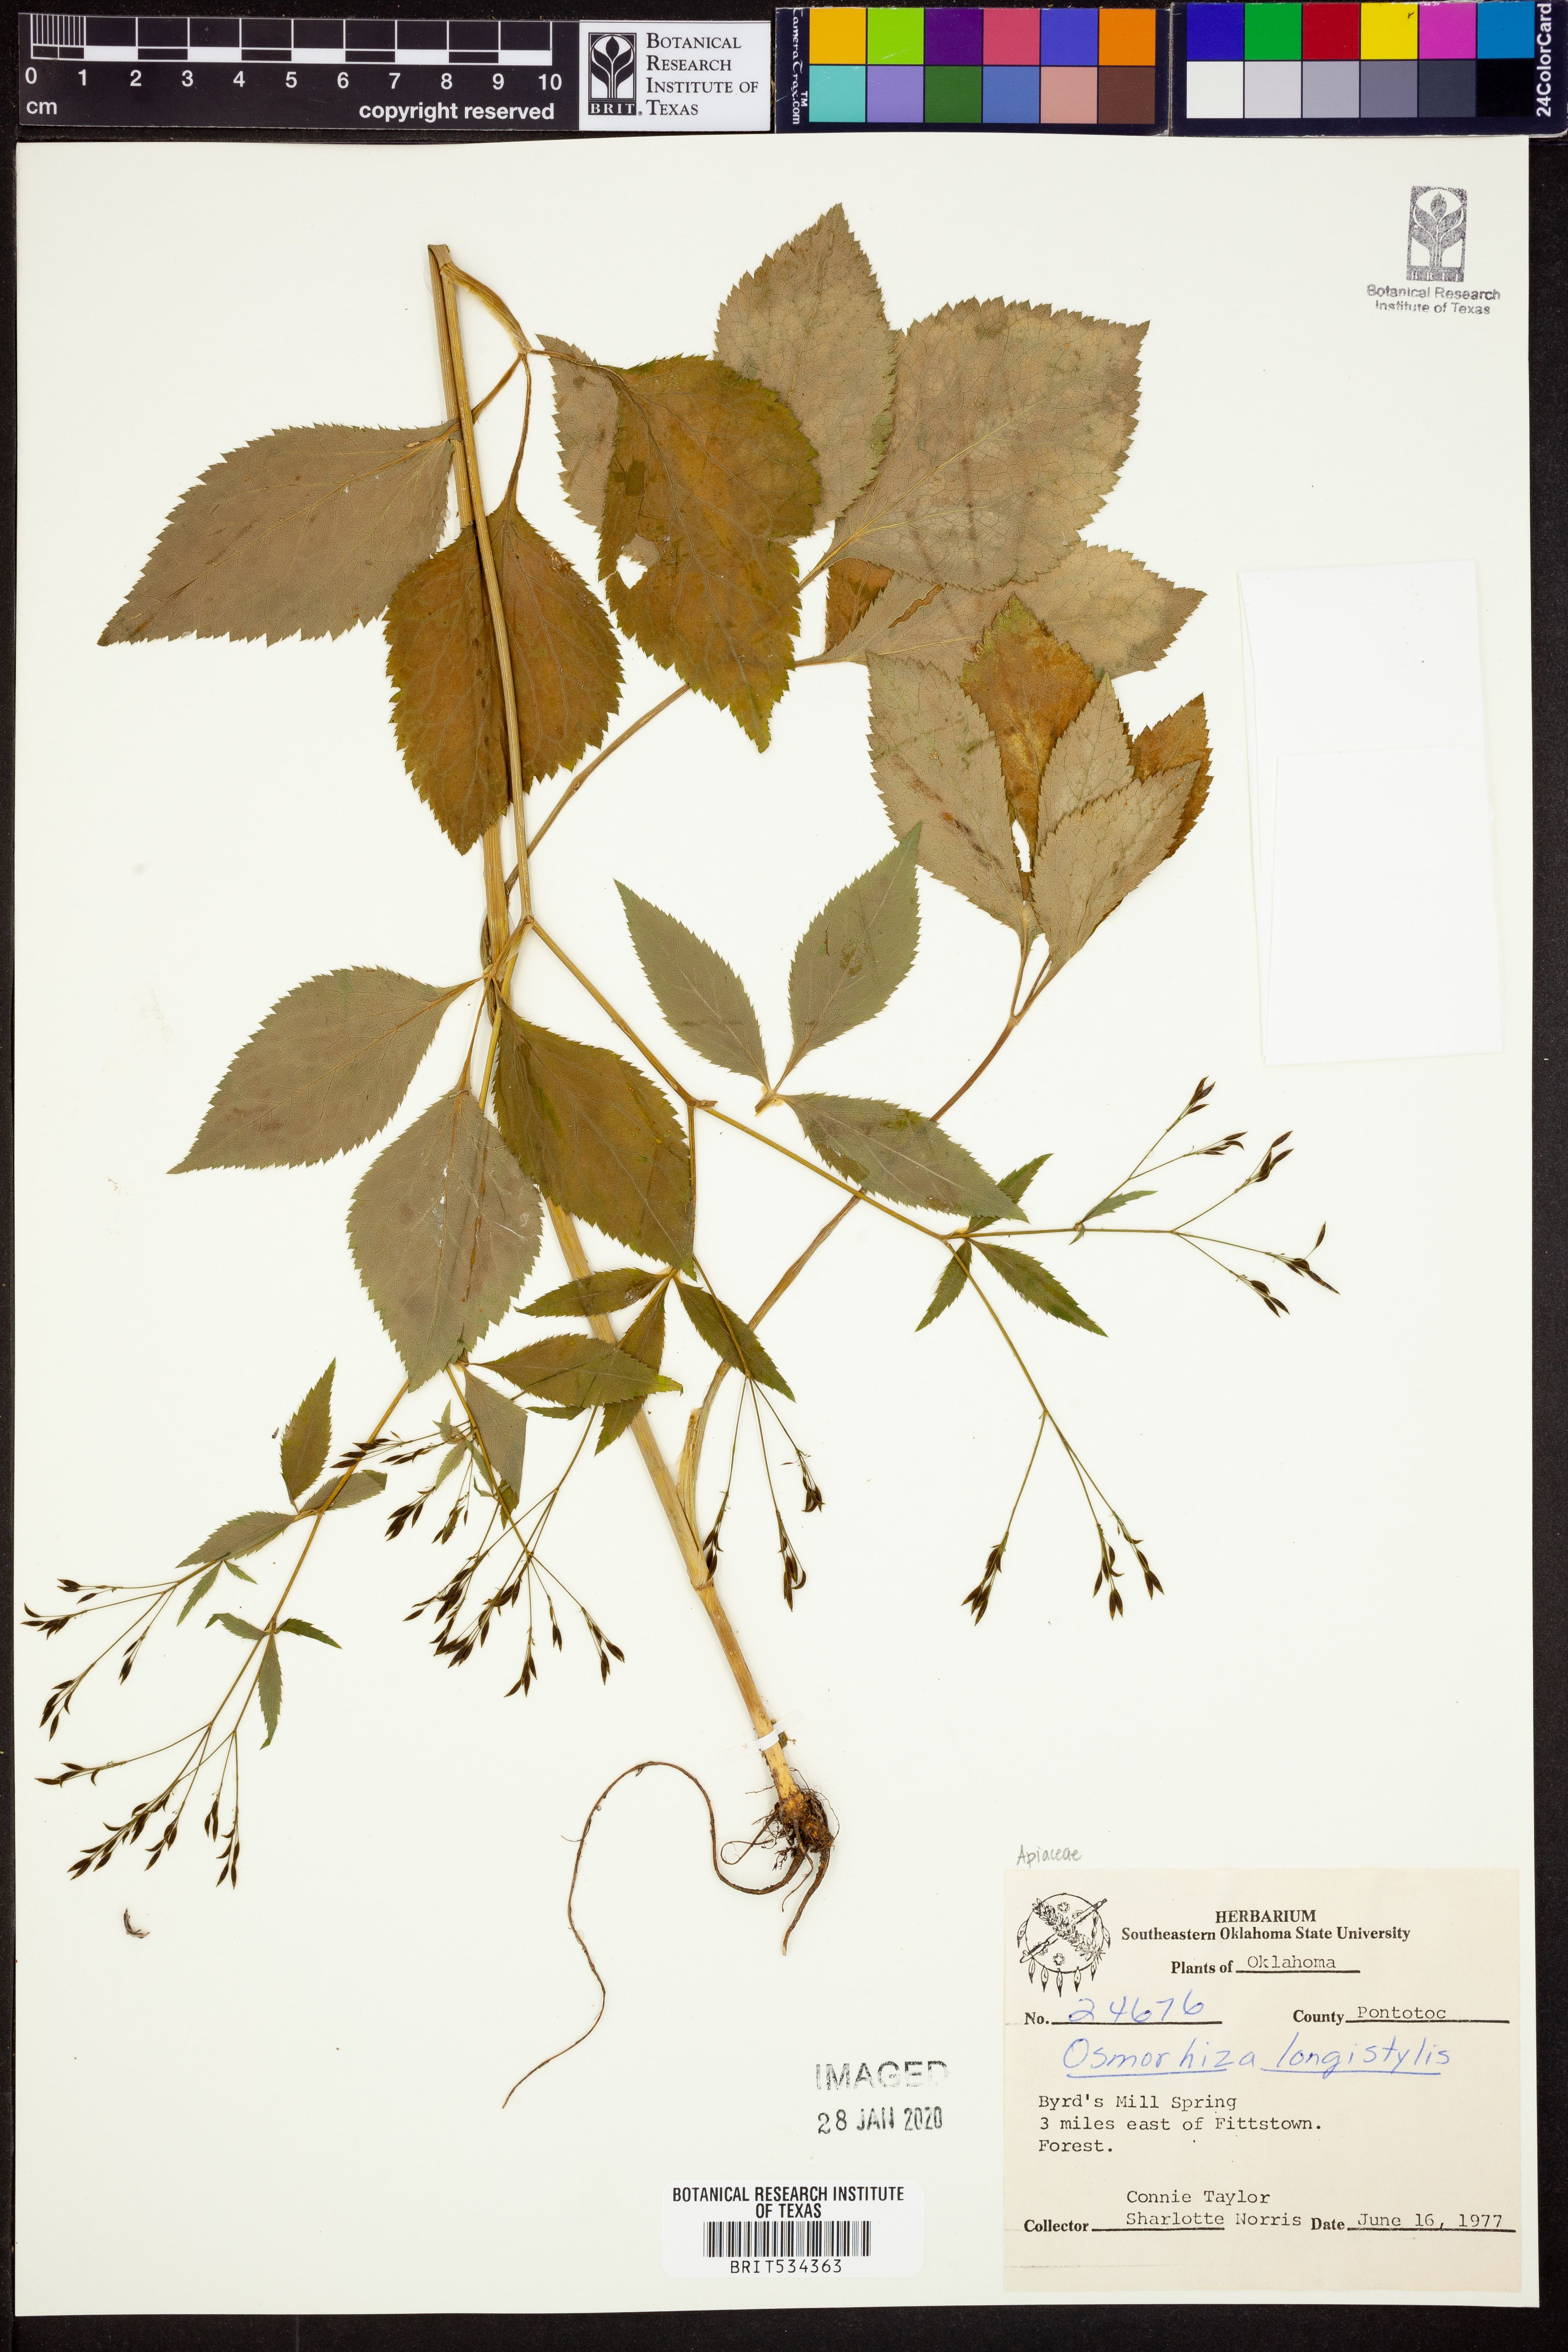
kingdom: Plantae
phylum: Tracheophyta
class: Magnoliopsida
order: Apiales
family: Apiaceae
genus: Osmorhiza
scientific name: Osmorhiza longistylis
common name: Smooth sweet cicely
